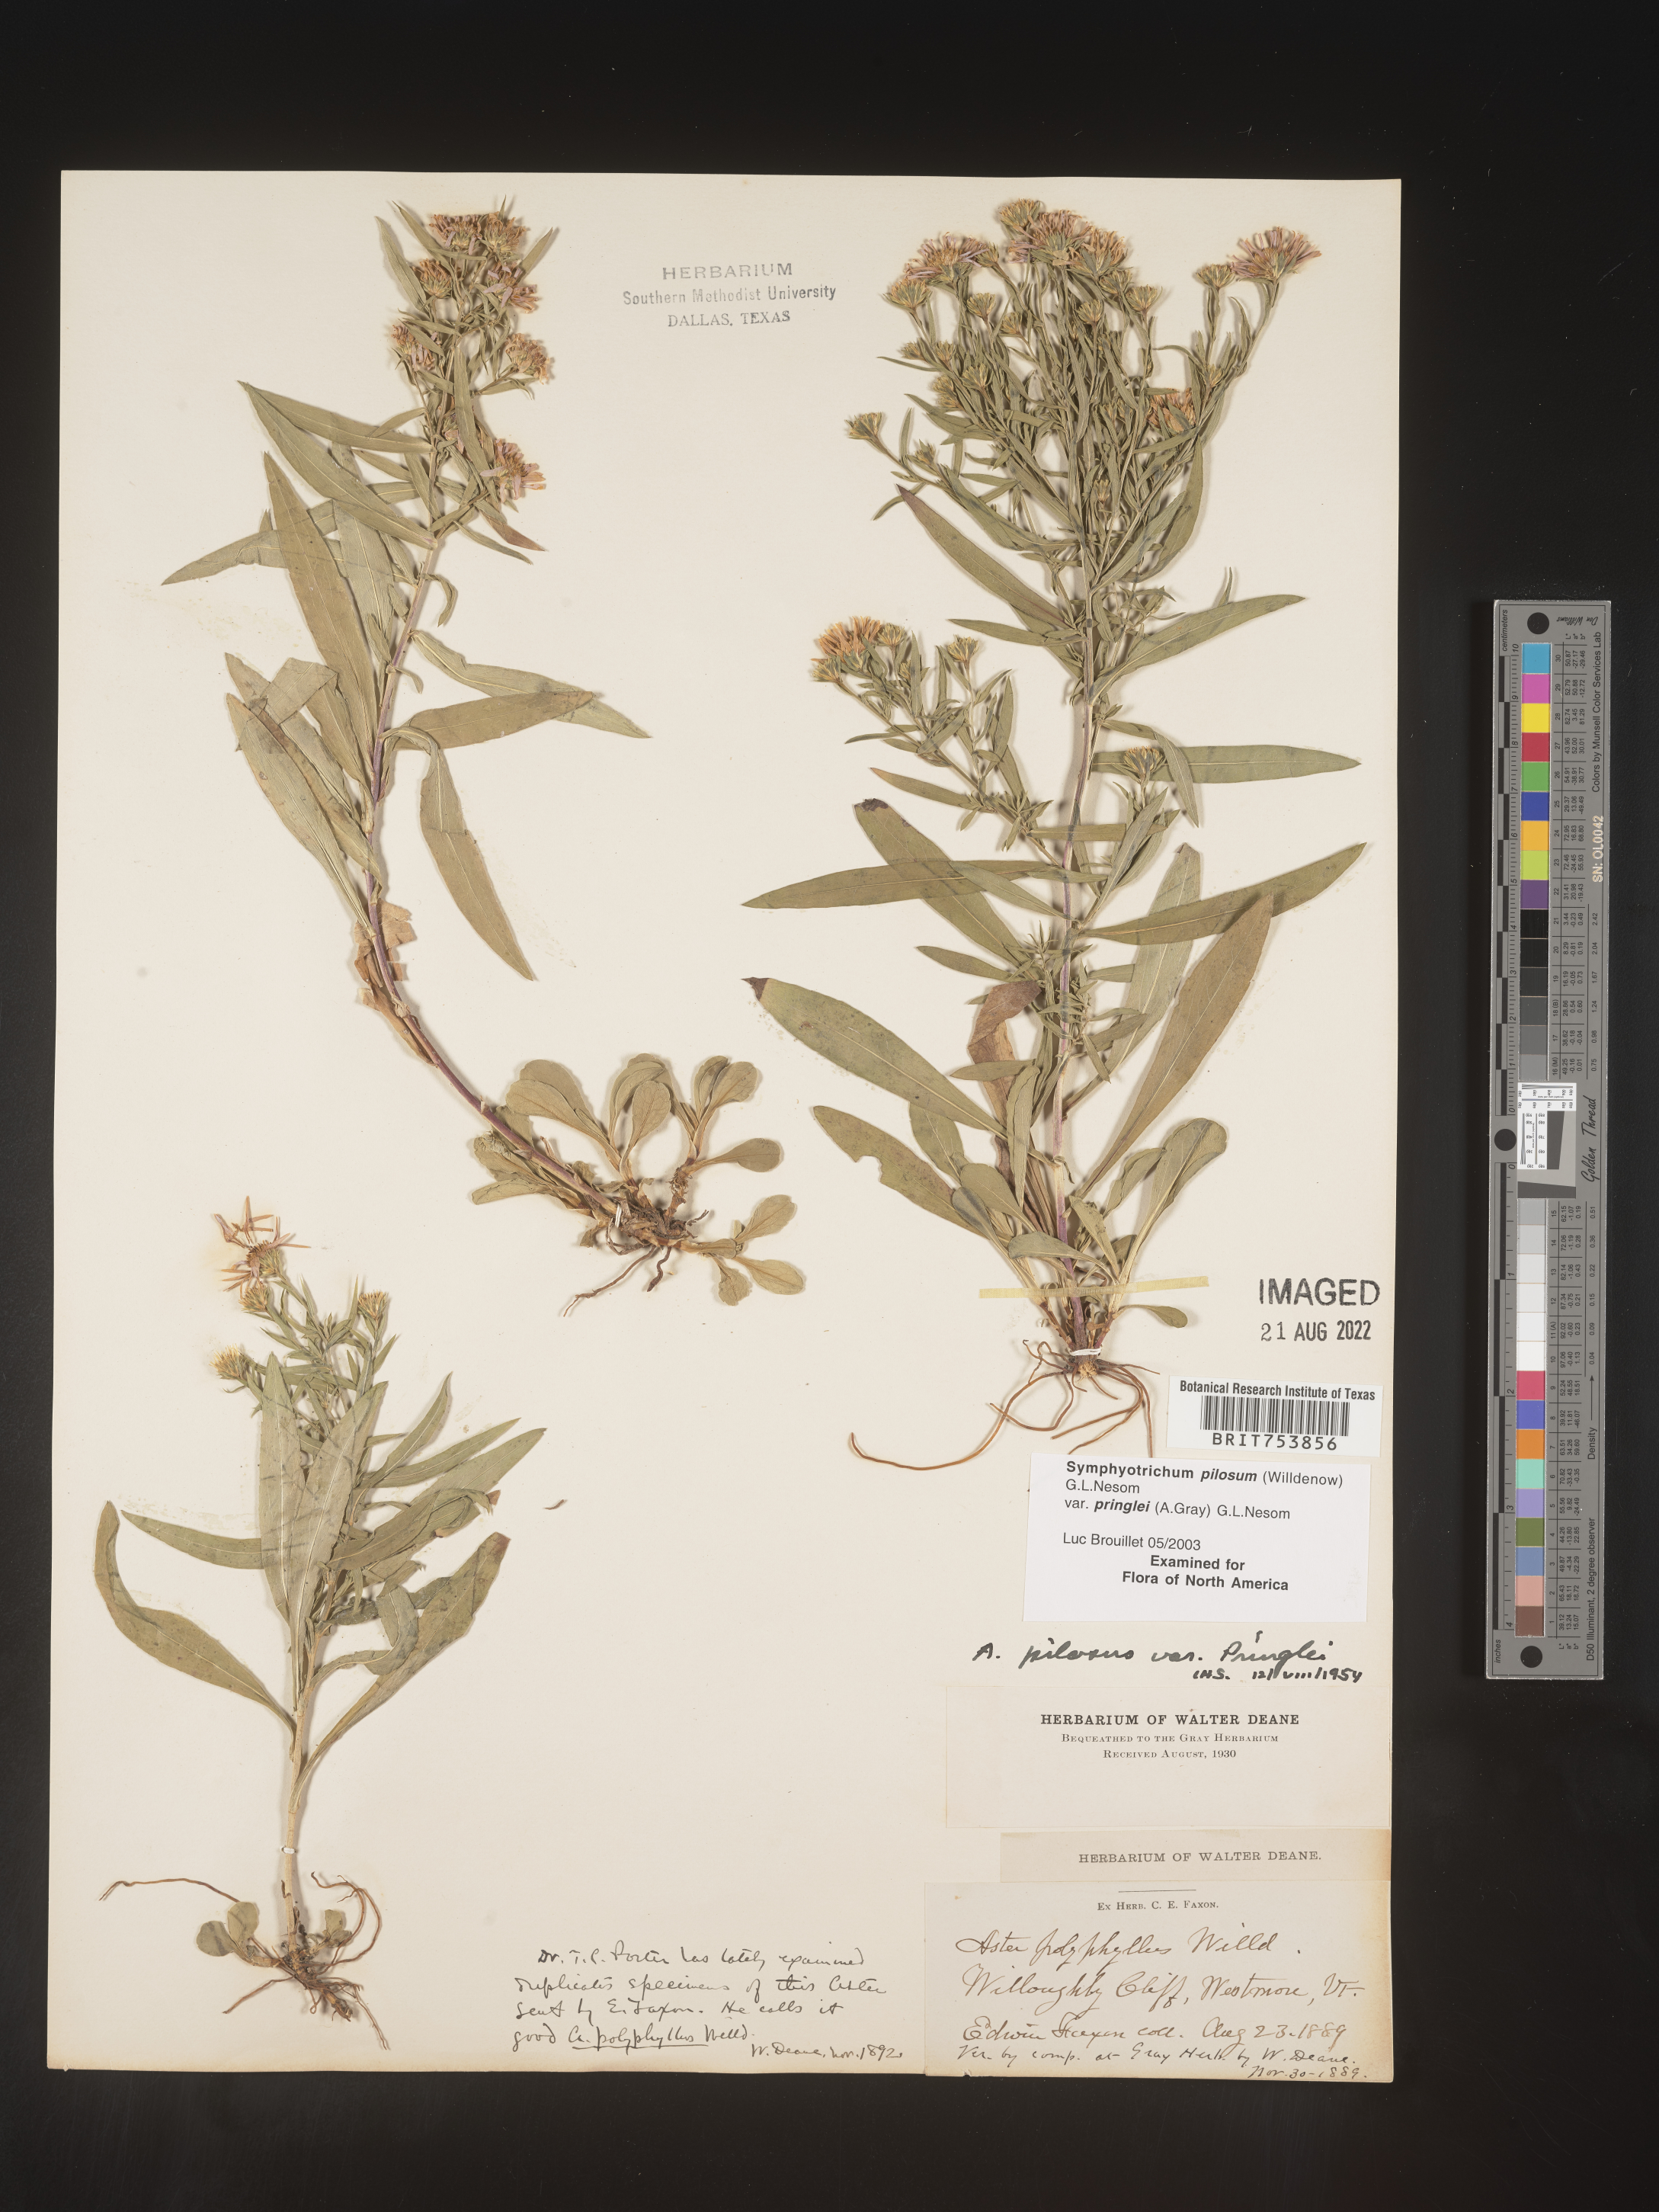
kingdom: Plantae
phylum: Tracheophyta
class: Magnoliopsida
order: Asterales
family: Asteraceae
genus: Symphyotrichum
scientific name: Symphyotrichum pilosum
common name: Awl aster
